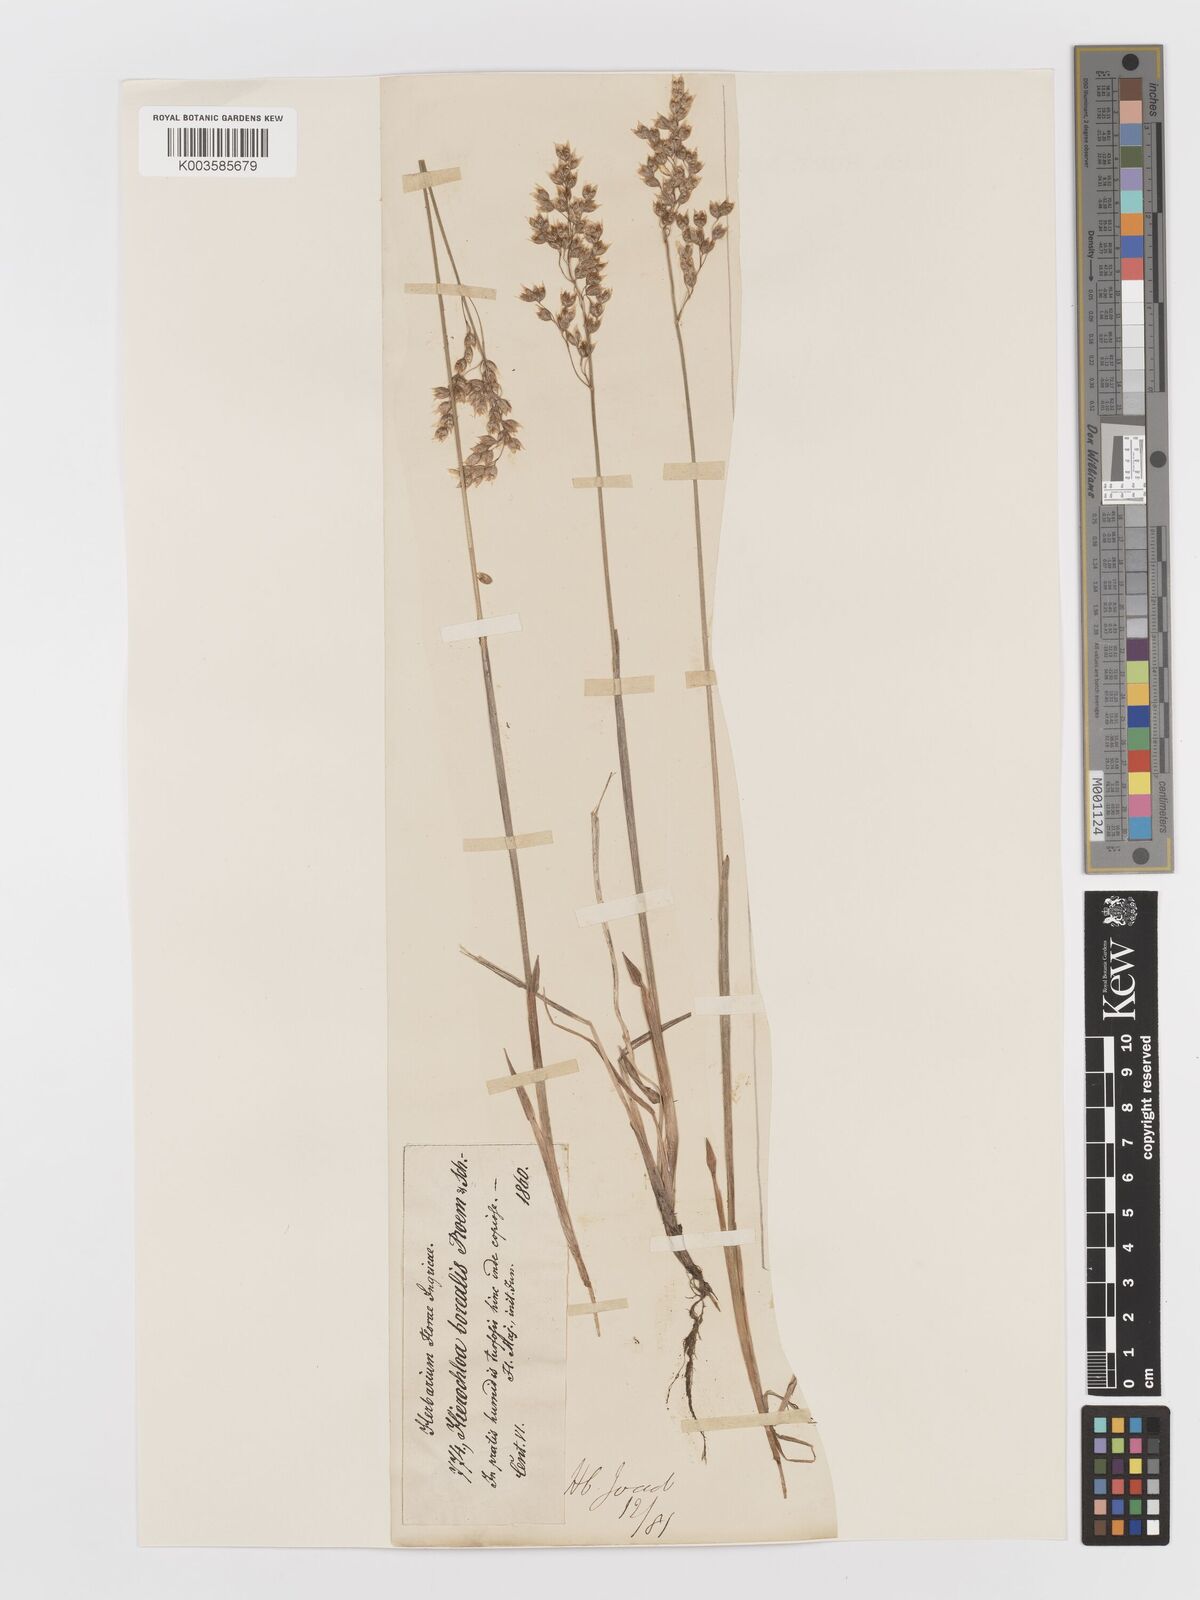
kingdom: Plantae
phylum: Tracheophyta
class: Liliopsida
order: Poales
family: Poaceae
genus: Anthoxanthum
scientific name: Anthoxanthum nitens
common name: Holy grass
